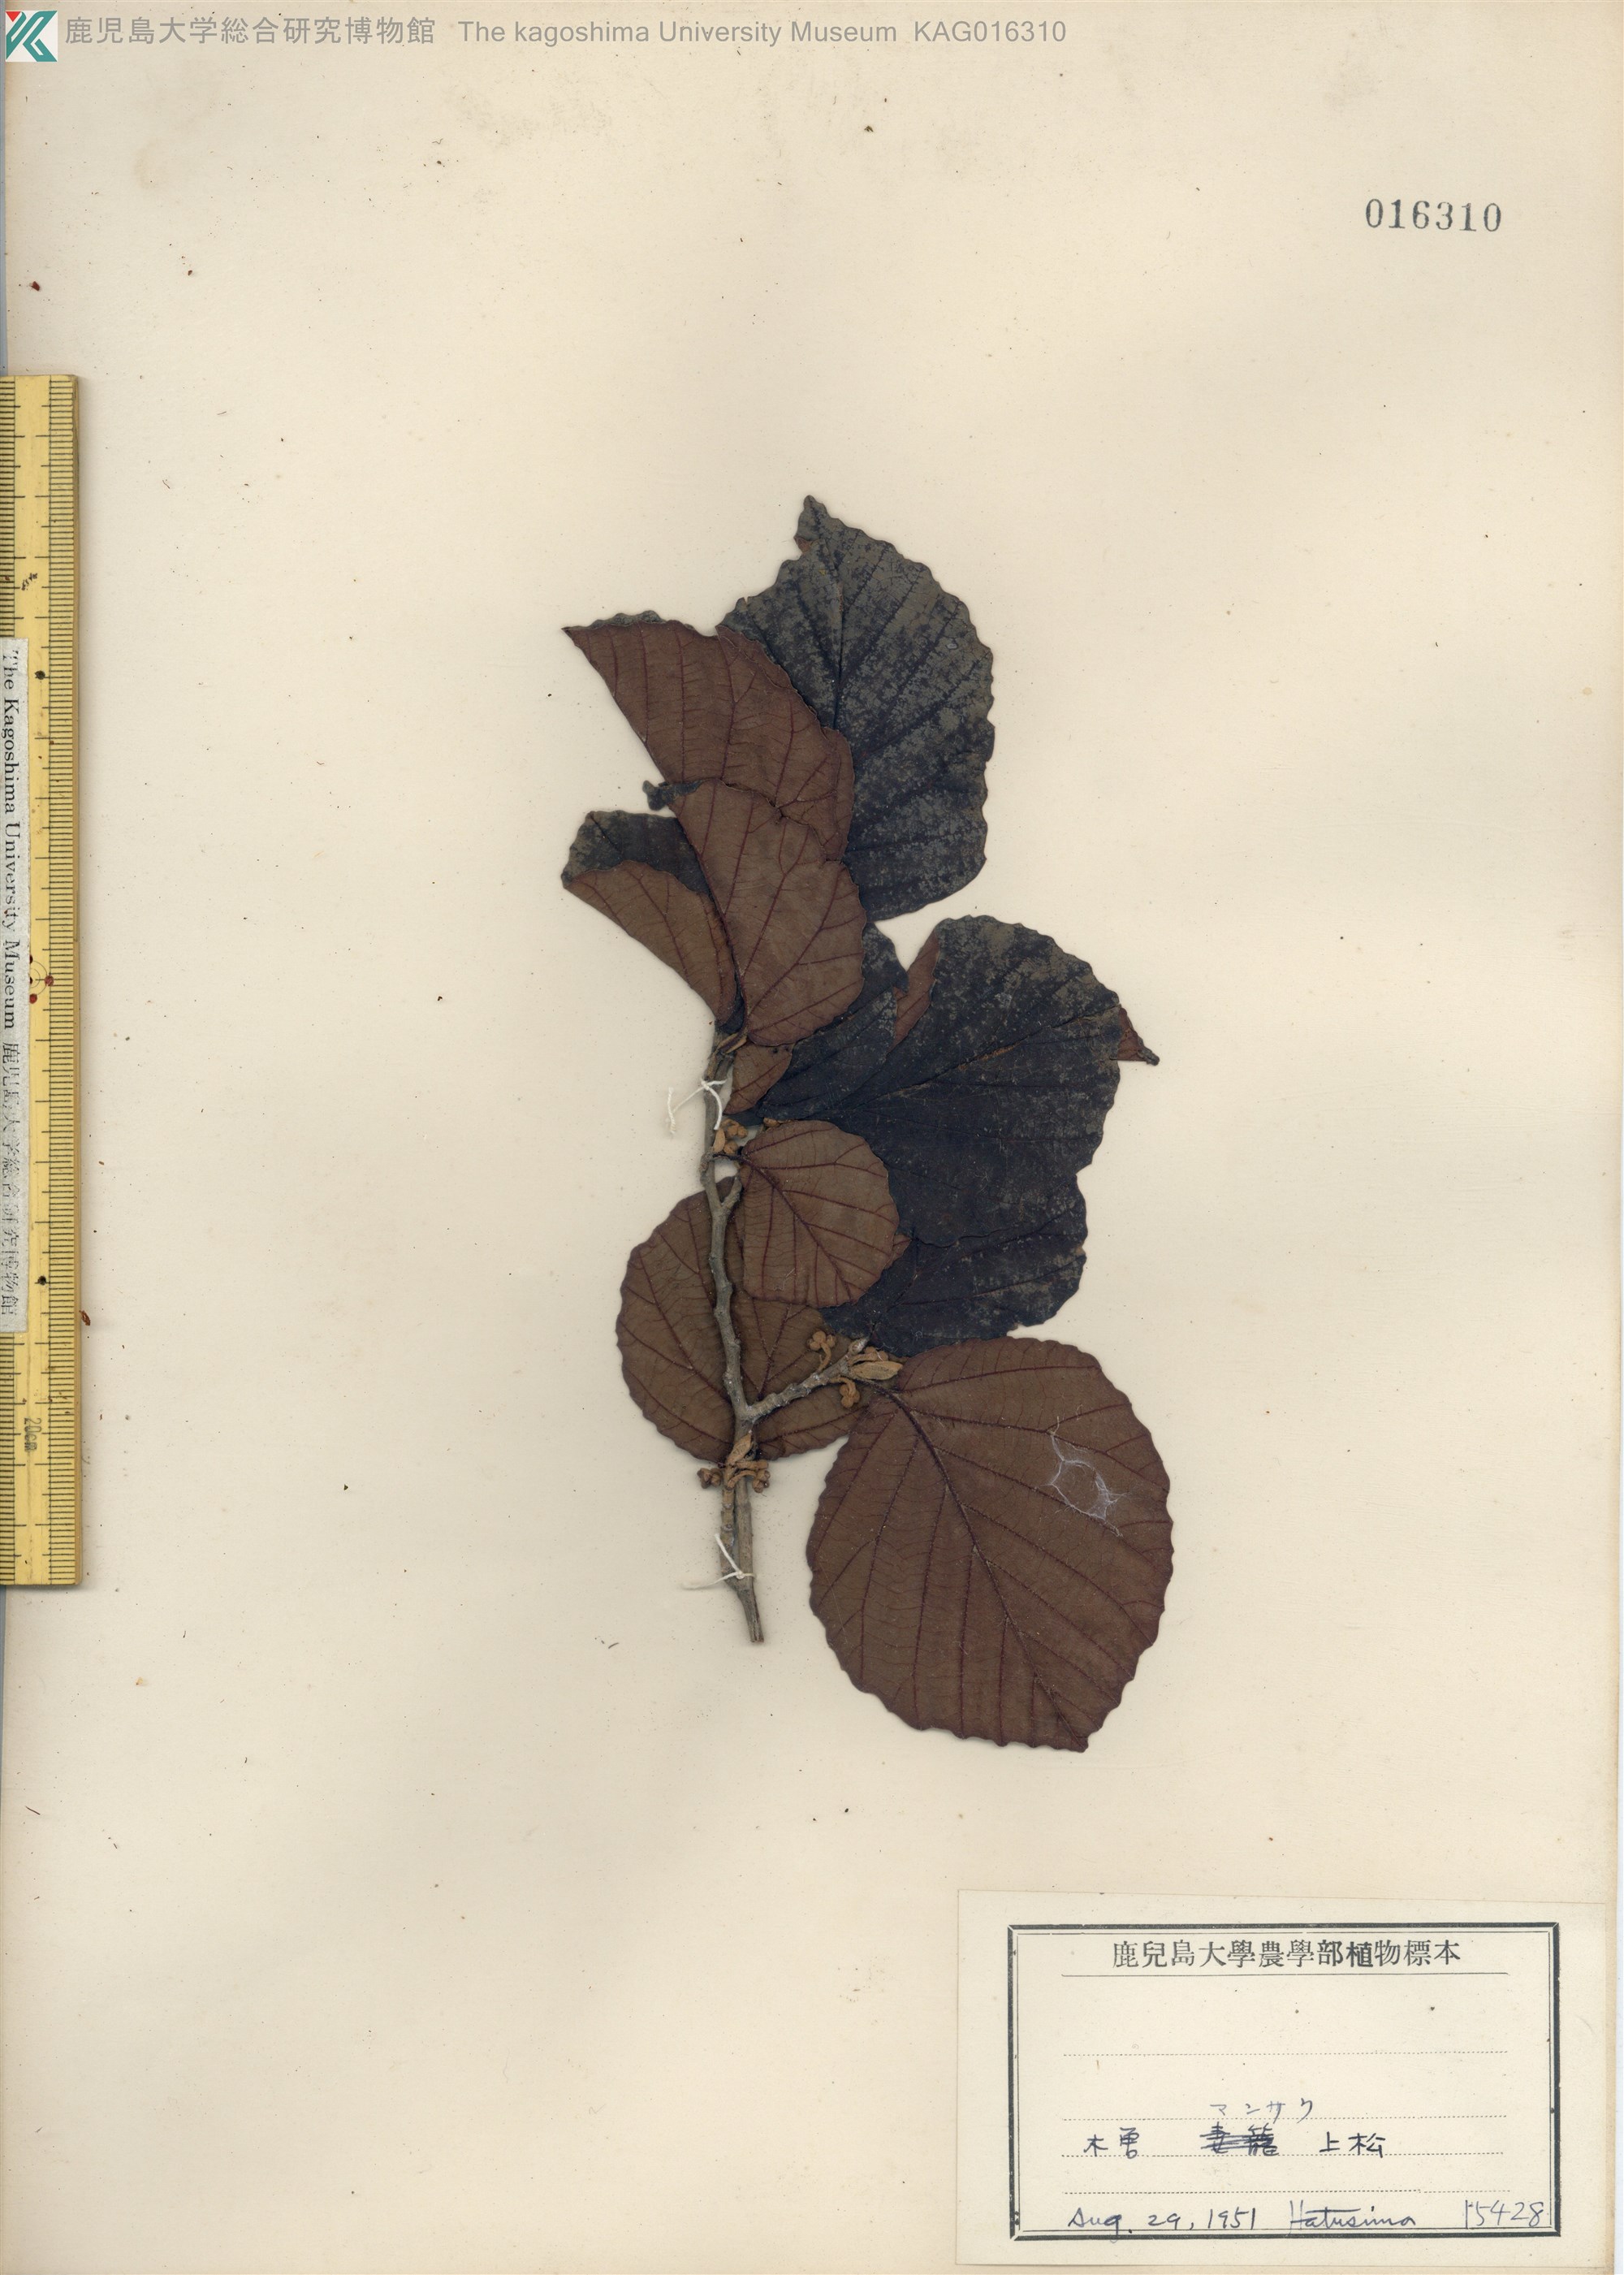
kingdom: Plantae
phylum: Tracheophyta
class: Magnoliopsida
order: Saxifragales
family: Hamamelidaceae
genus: Hamamelis
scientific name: Hamamelis japonica
